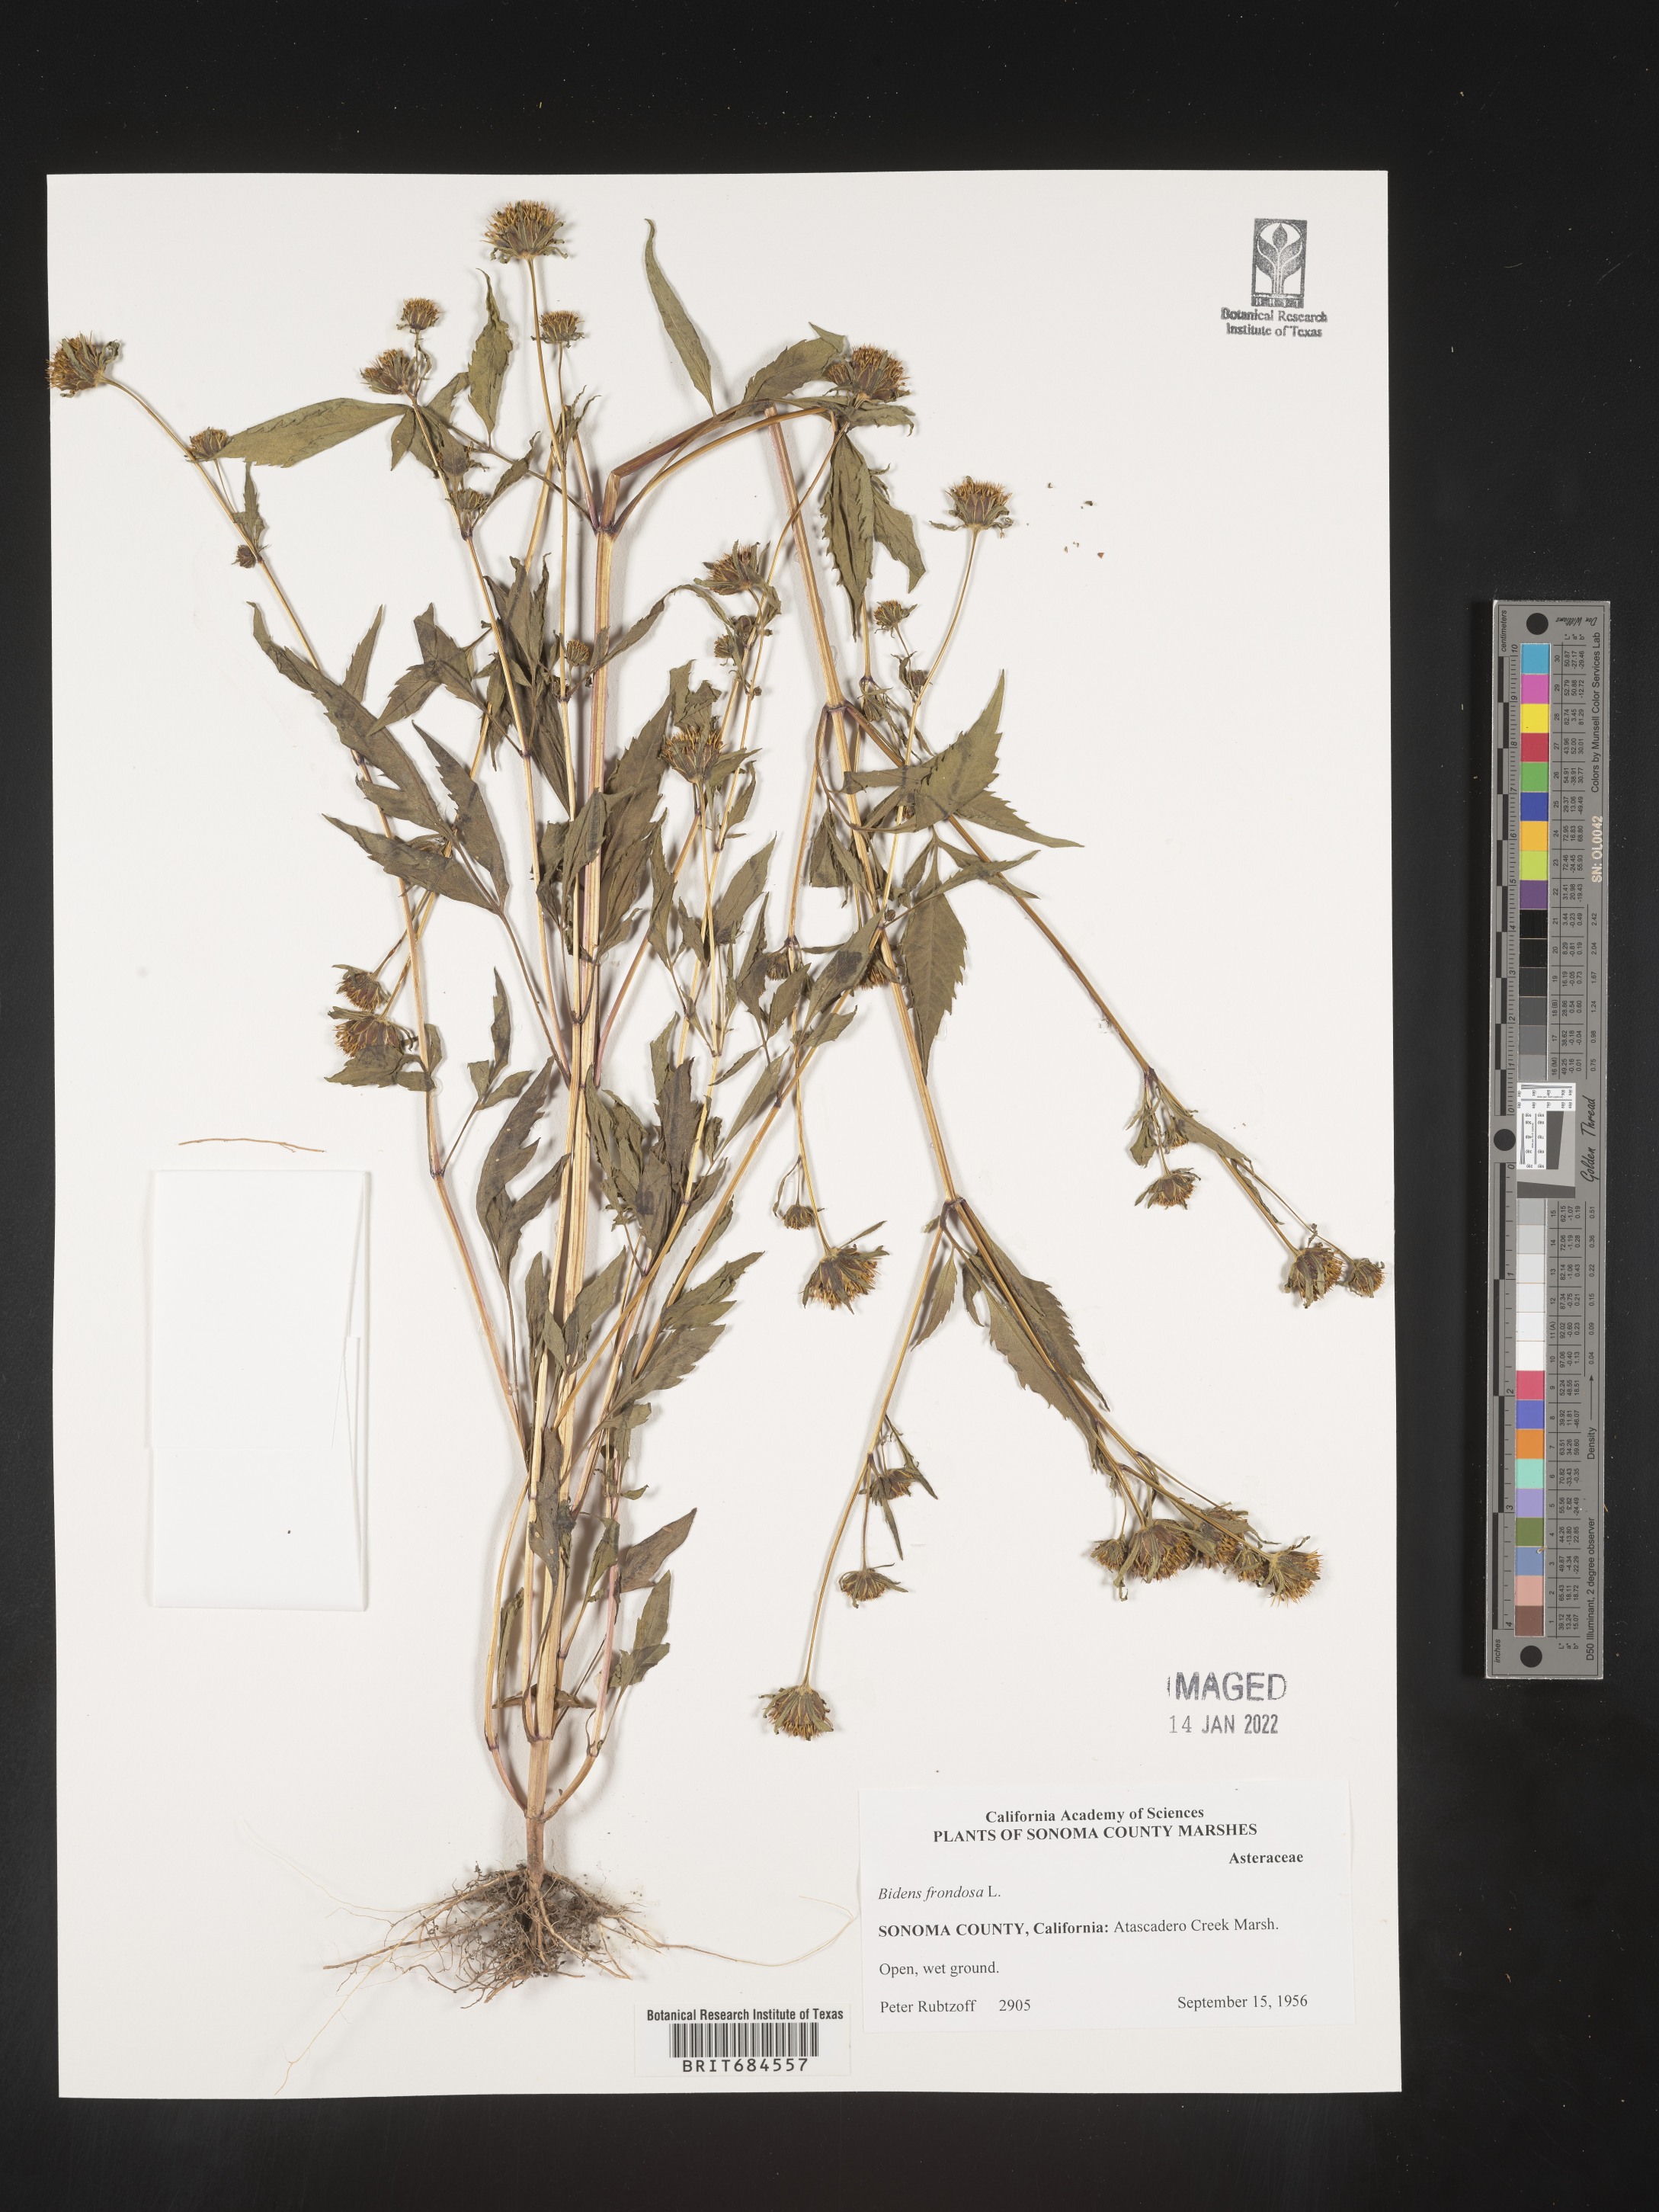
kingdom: Plantae
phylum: Tracheophyta
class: Magnoliopsida
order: Asterales
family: Asteraceae
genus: Bidens
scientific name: Bidens frondosa
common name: Beggarticks
